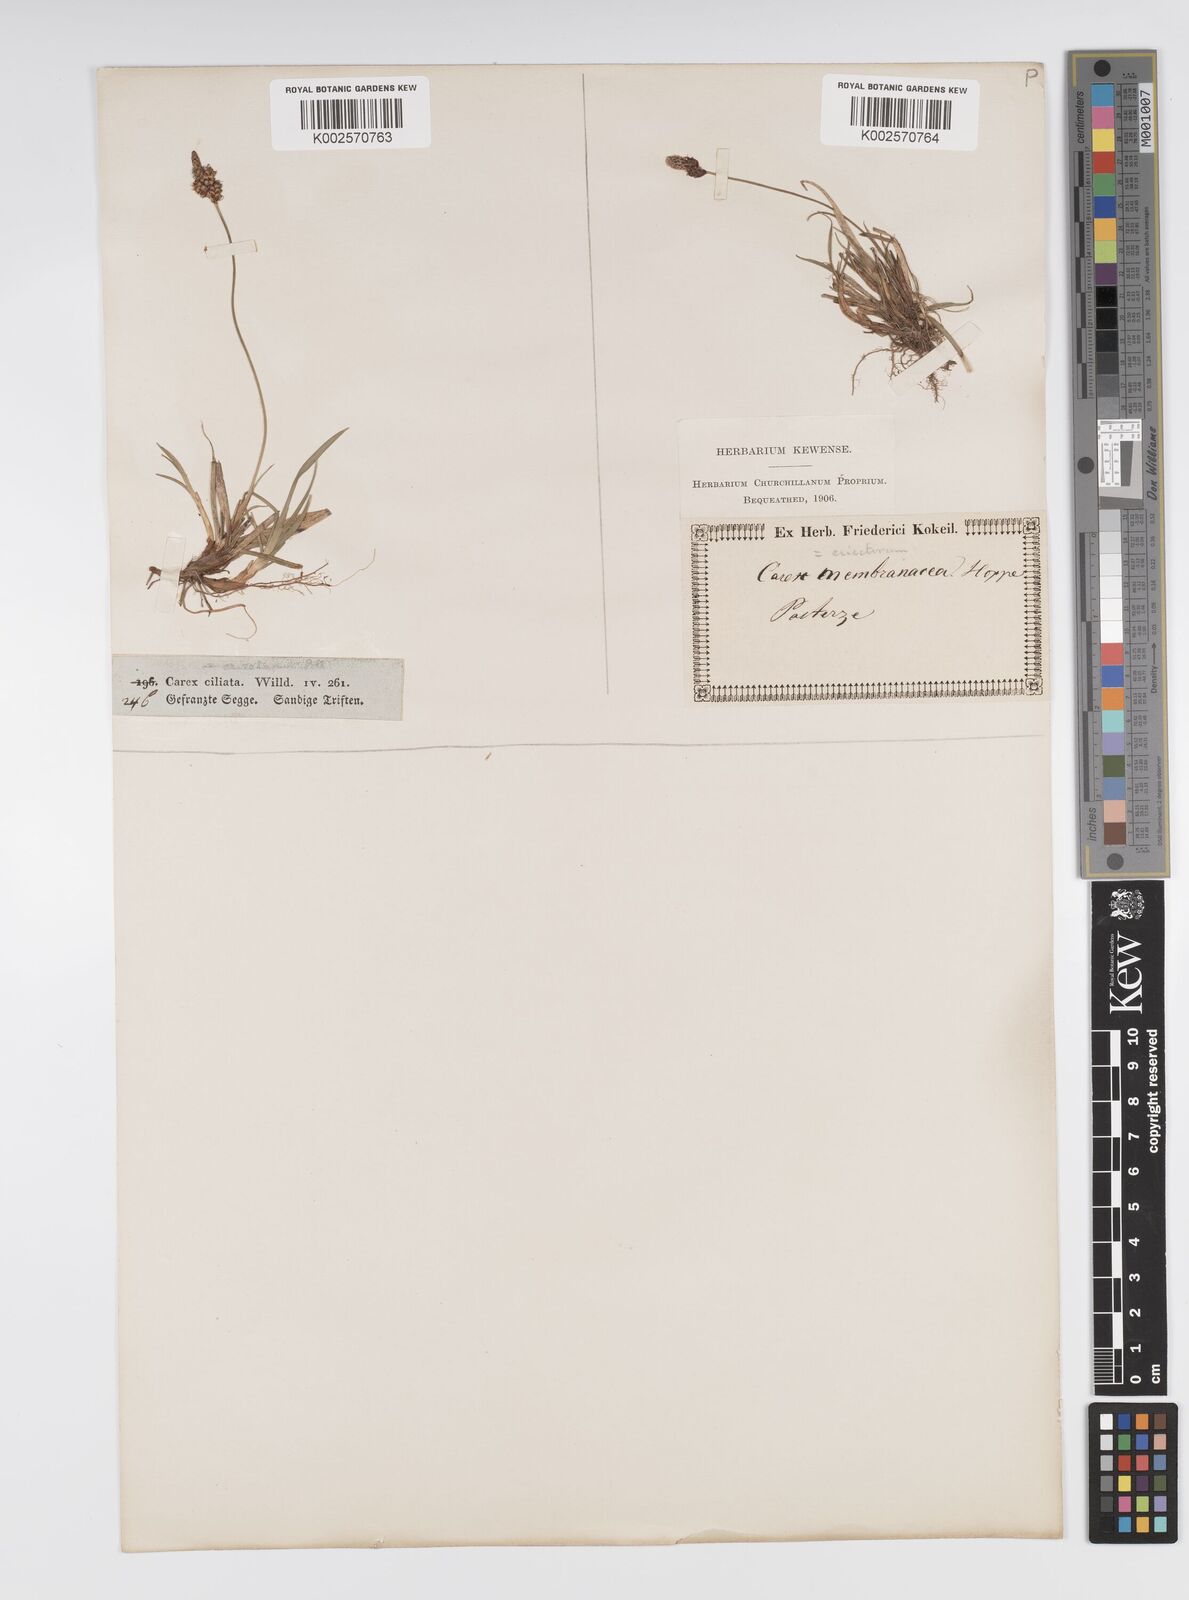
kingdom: Plantae
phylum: Tracheophyta
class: Liliopsida
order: Poales
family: Cyperaceae
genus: Carex
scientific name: Carex ericetorum
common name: Rare spring-sedge
